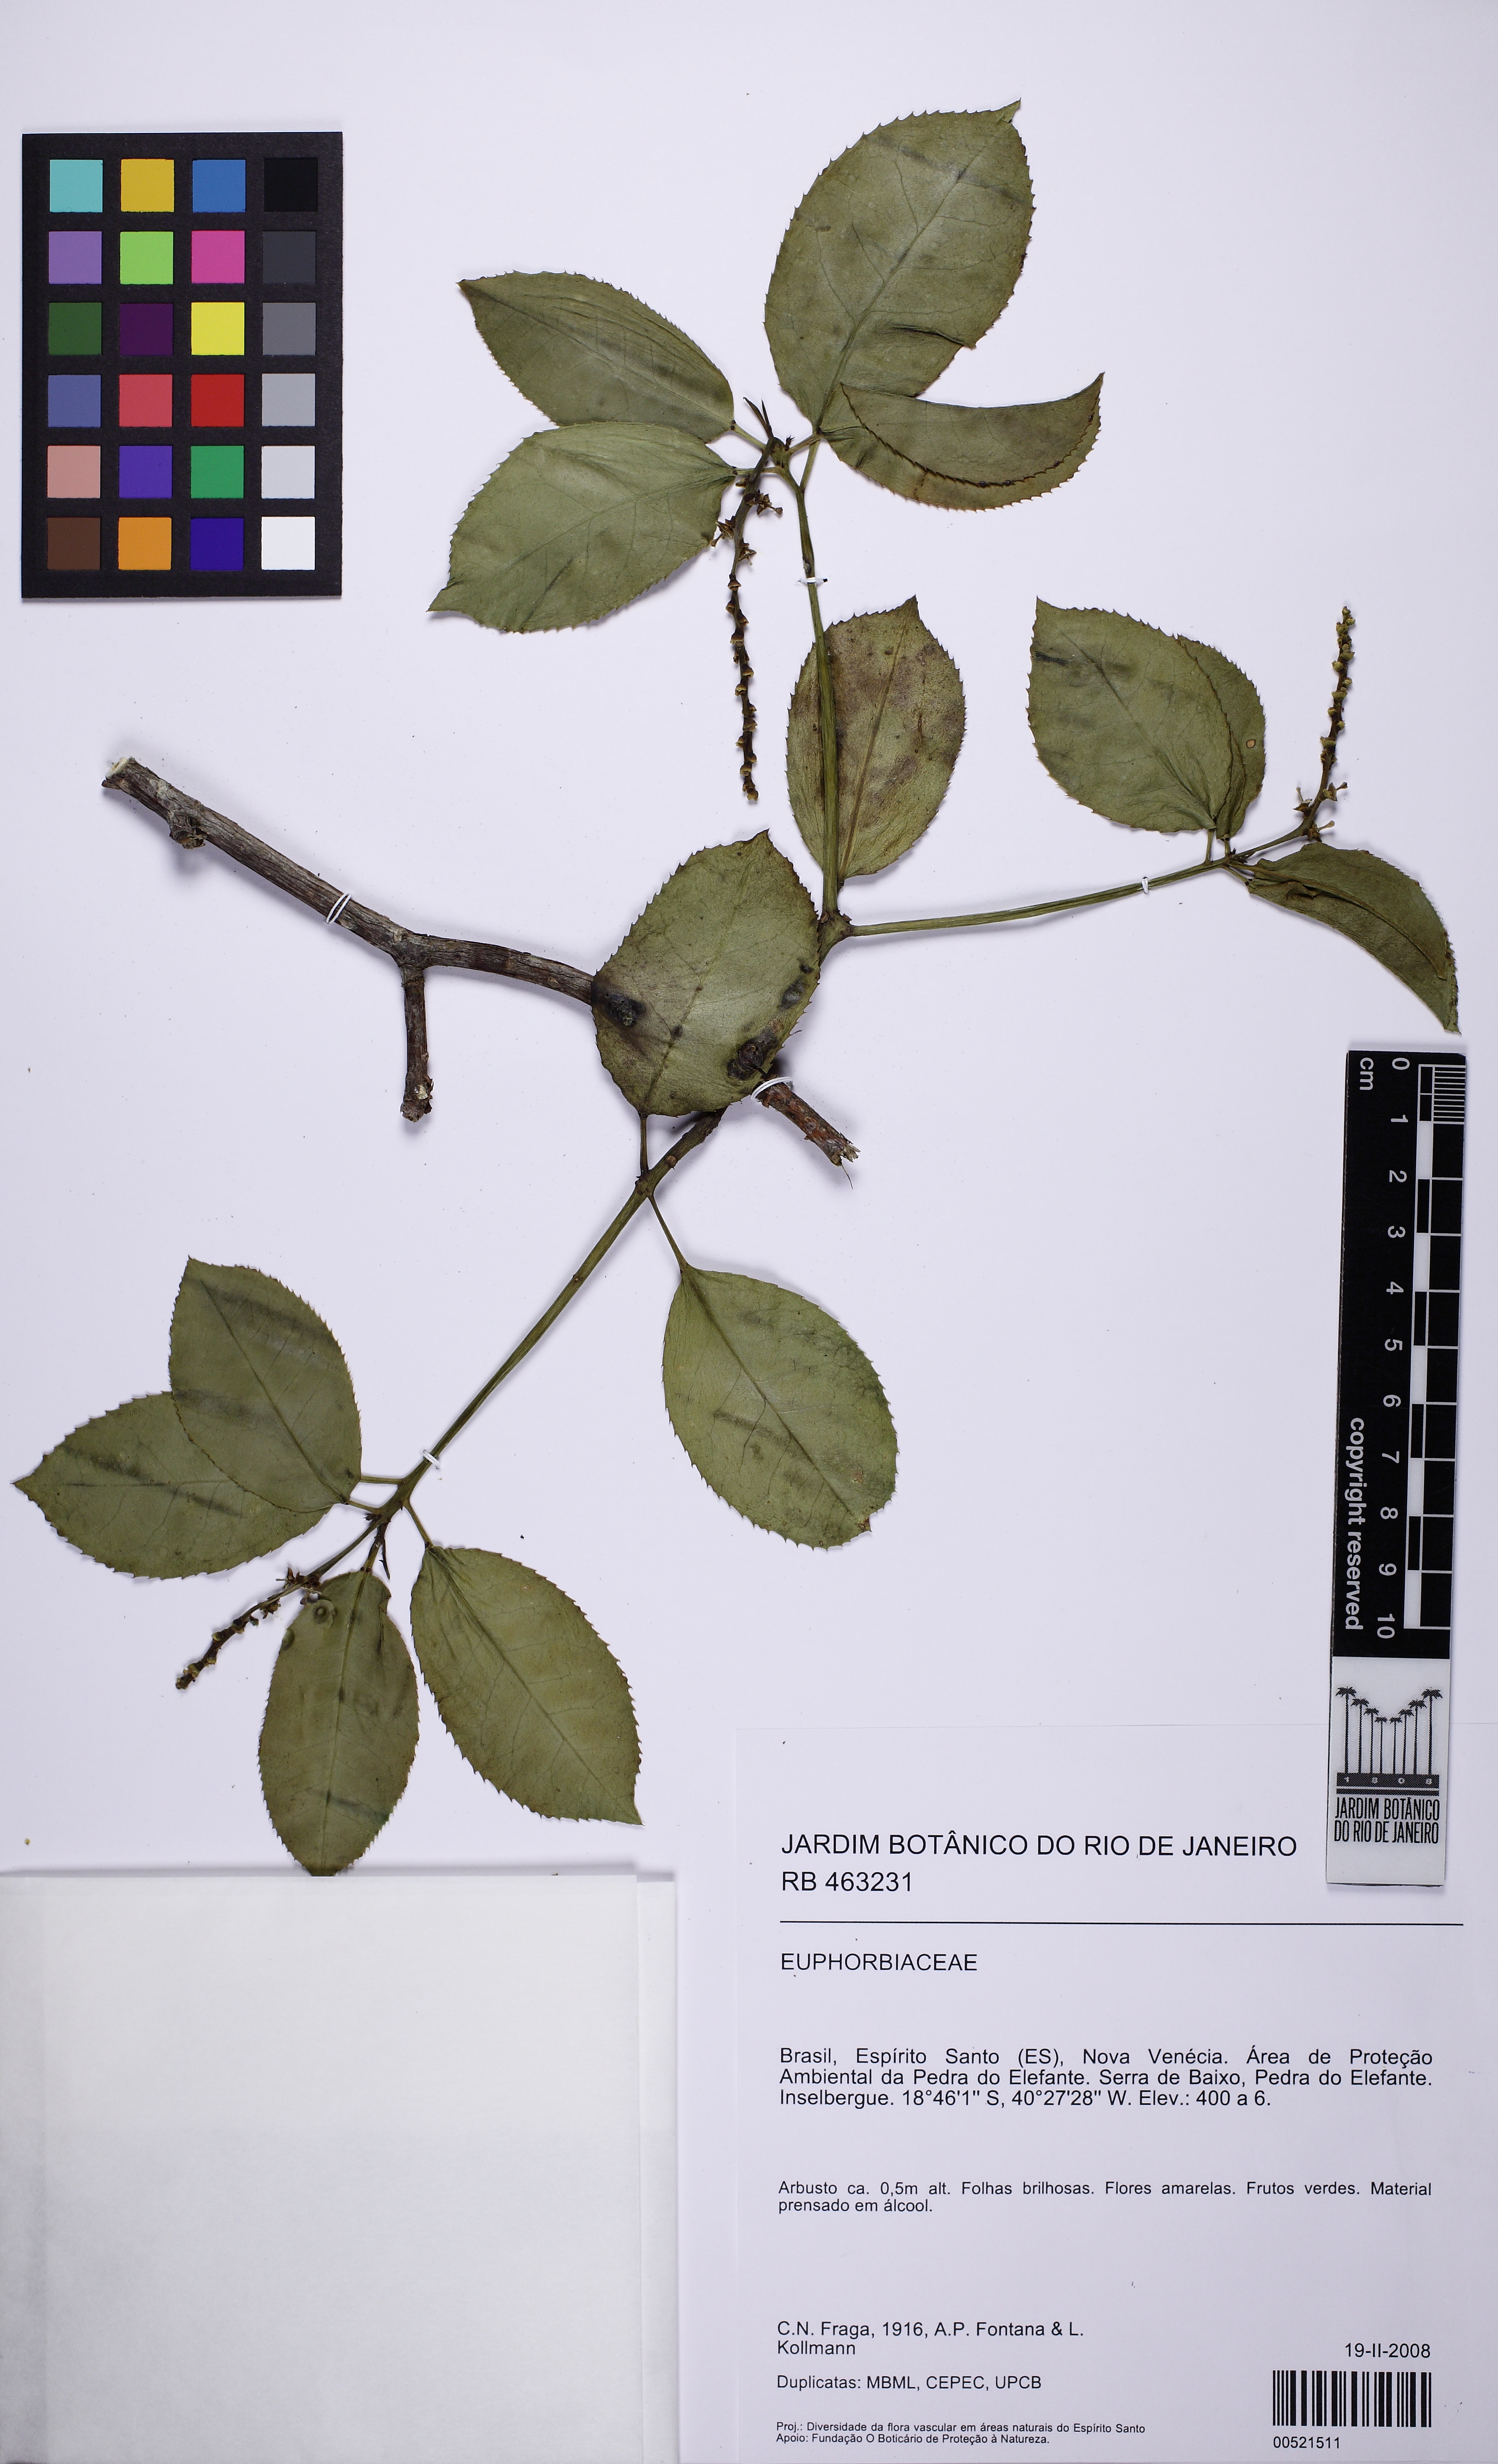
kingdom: Plantae
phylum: Tracheophyta
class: Magnoliopsida
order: Malpighiales
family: Euphorbiaceae
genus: Stillingia
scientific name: Stillingia
